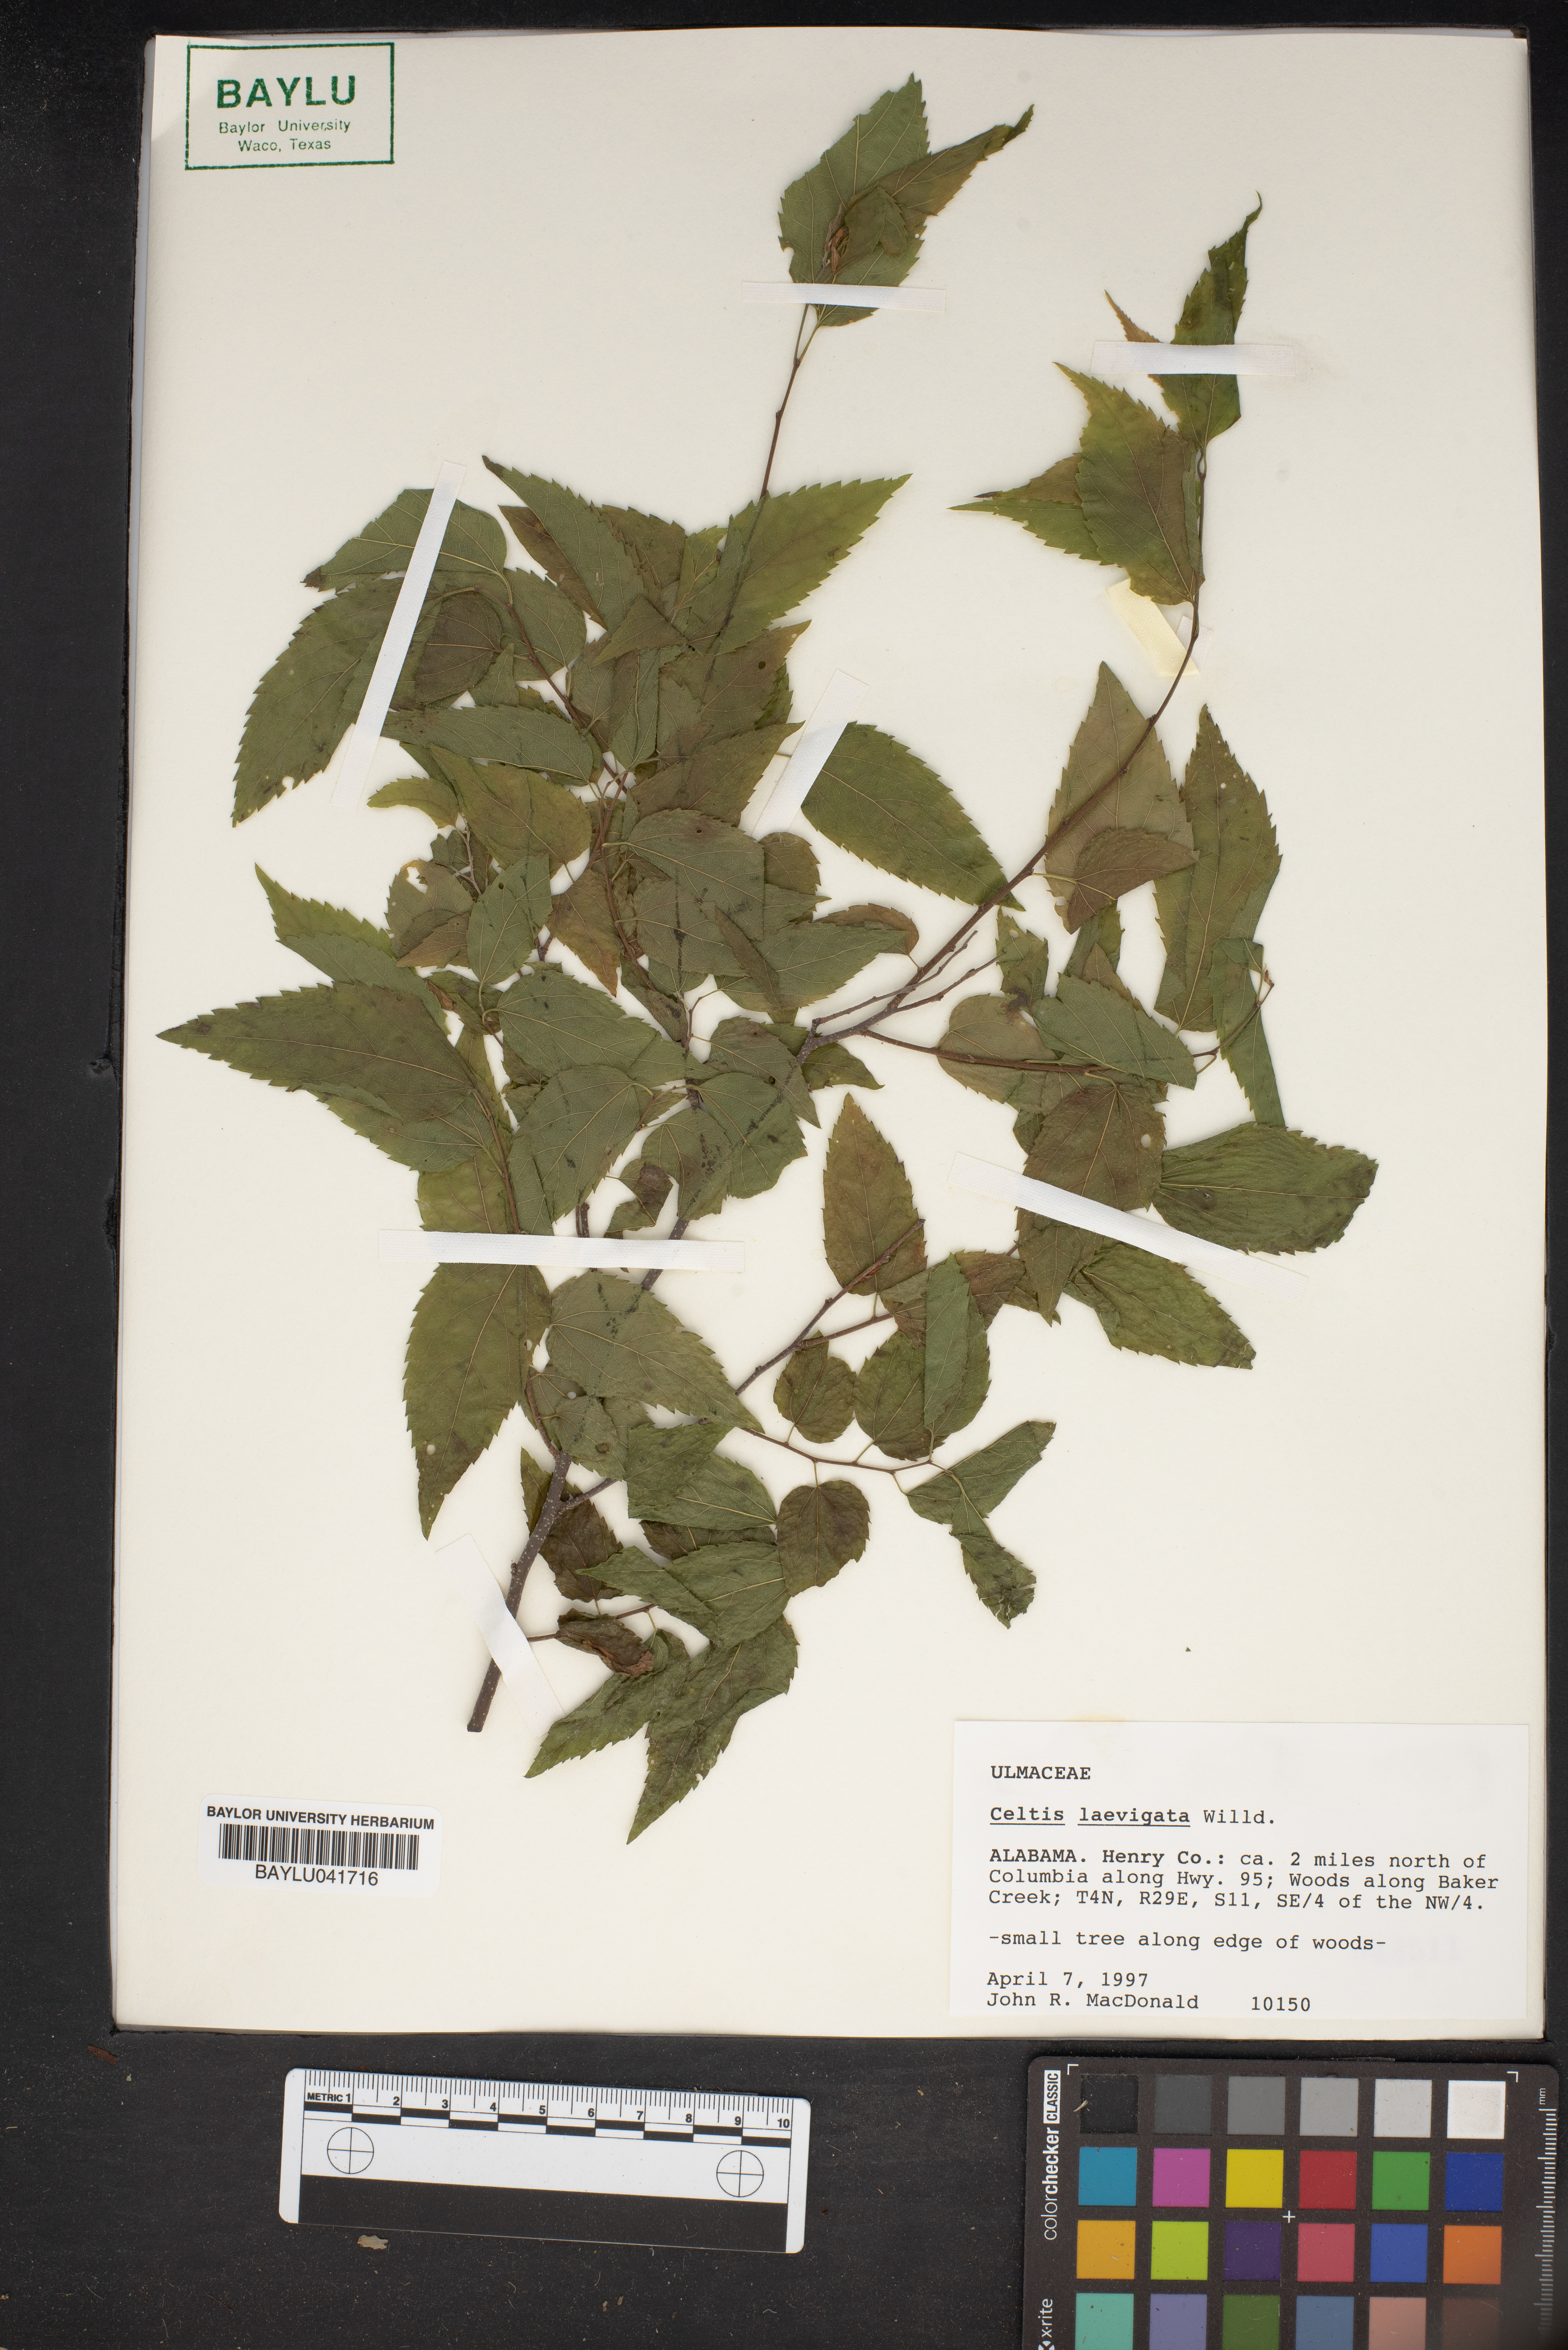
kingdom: Plantae
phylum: Tracheophyta
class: Magnoliopsida
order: Rosales
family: Cannabaceae
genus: Celtis
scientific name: Celtis laevigata
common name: Sugarberry
